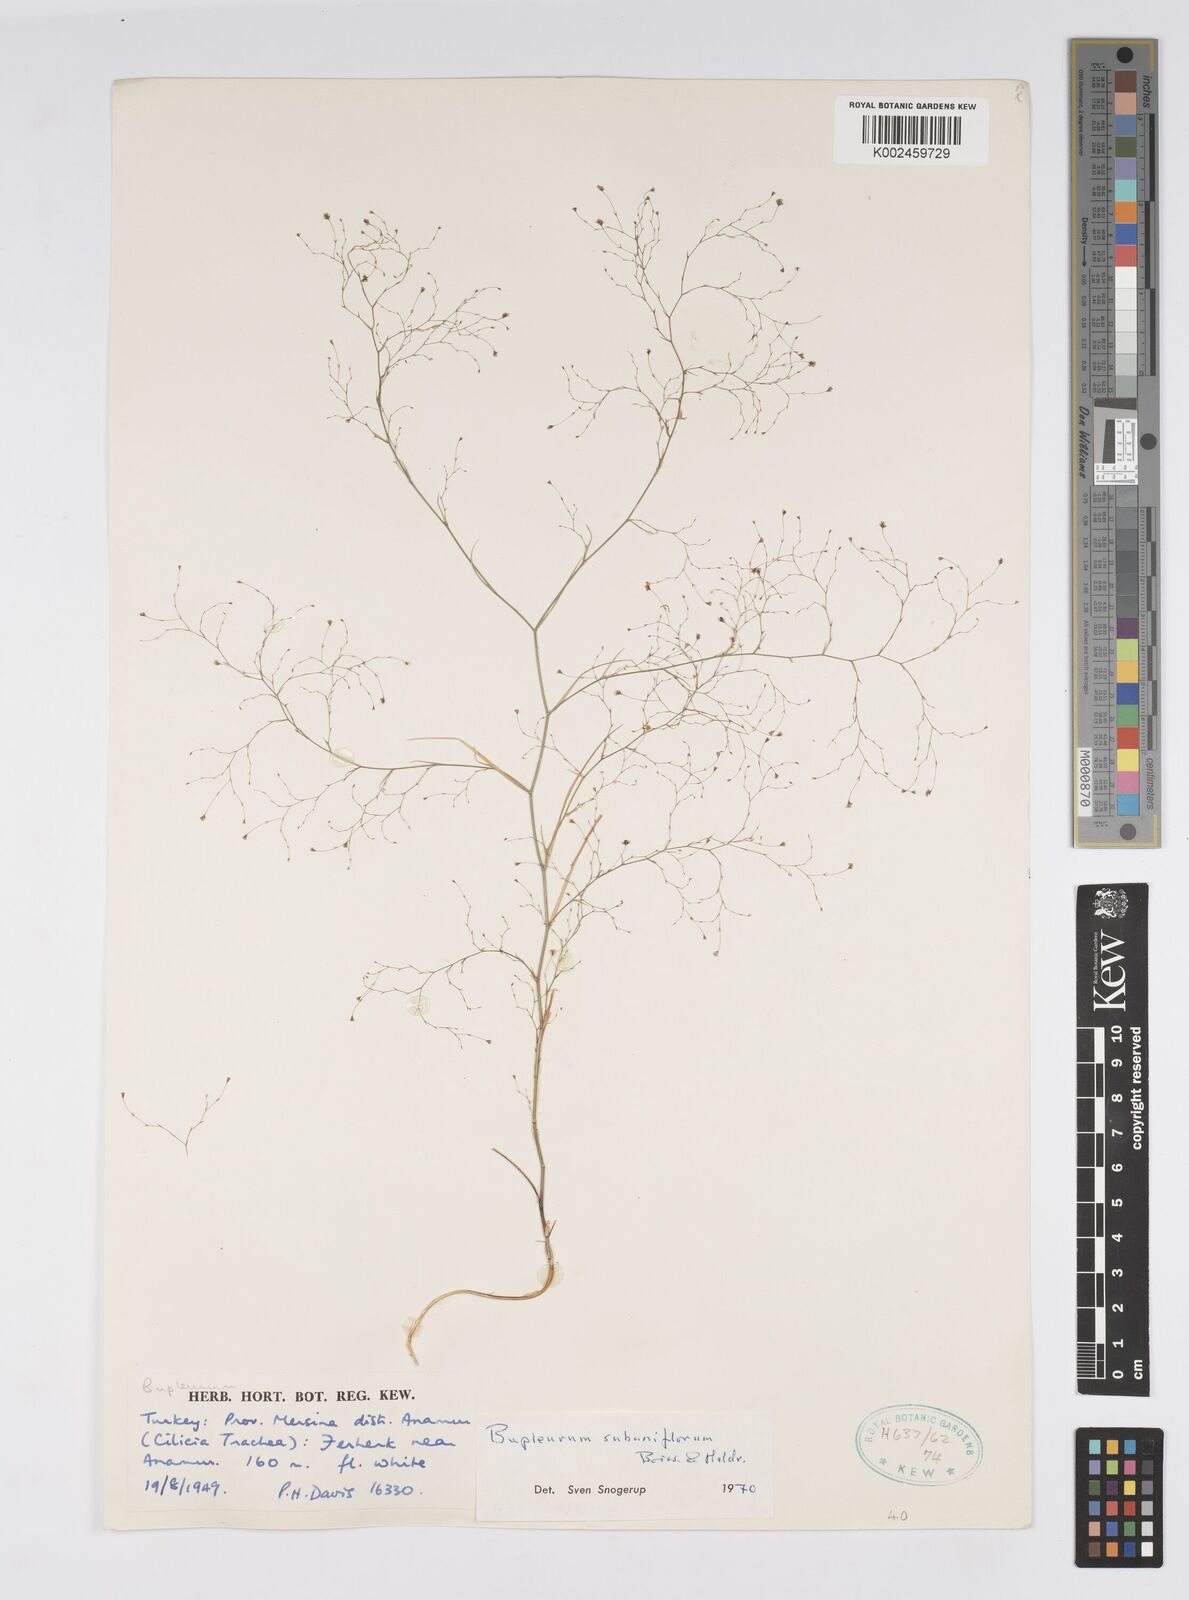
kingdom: Plantae
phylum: Tracheophyta
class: Magnoliopsida
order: Apiales
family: Apiaceae
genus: Bupleurum
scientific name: Bupleurum subuniflorum
